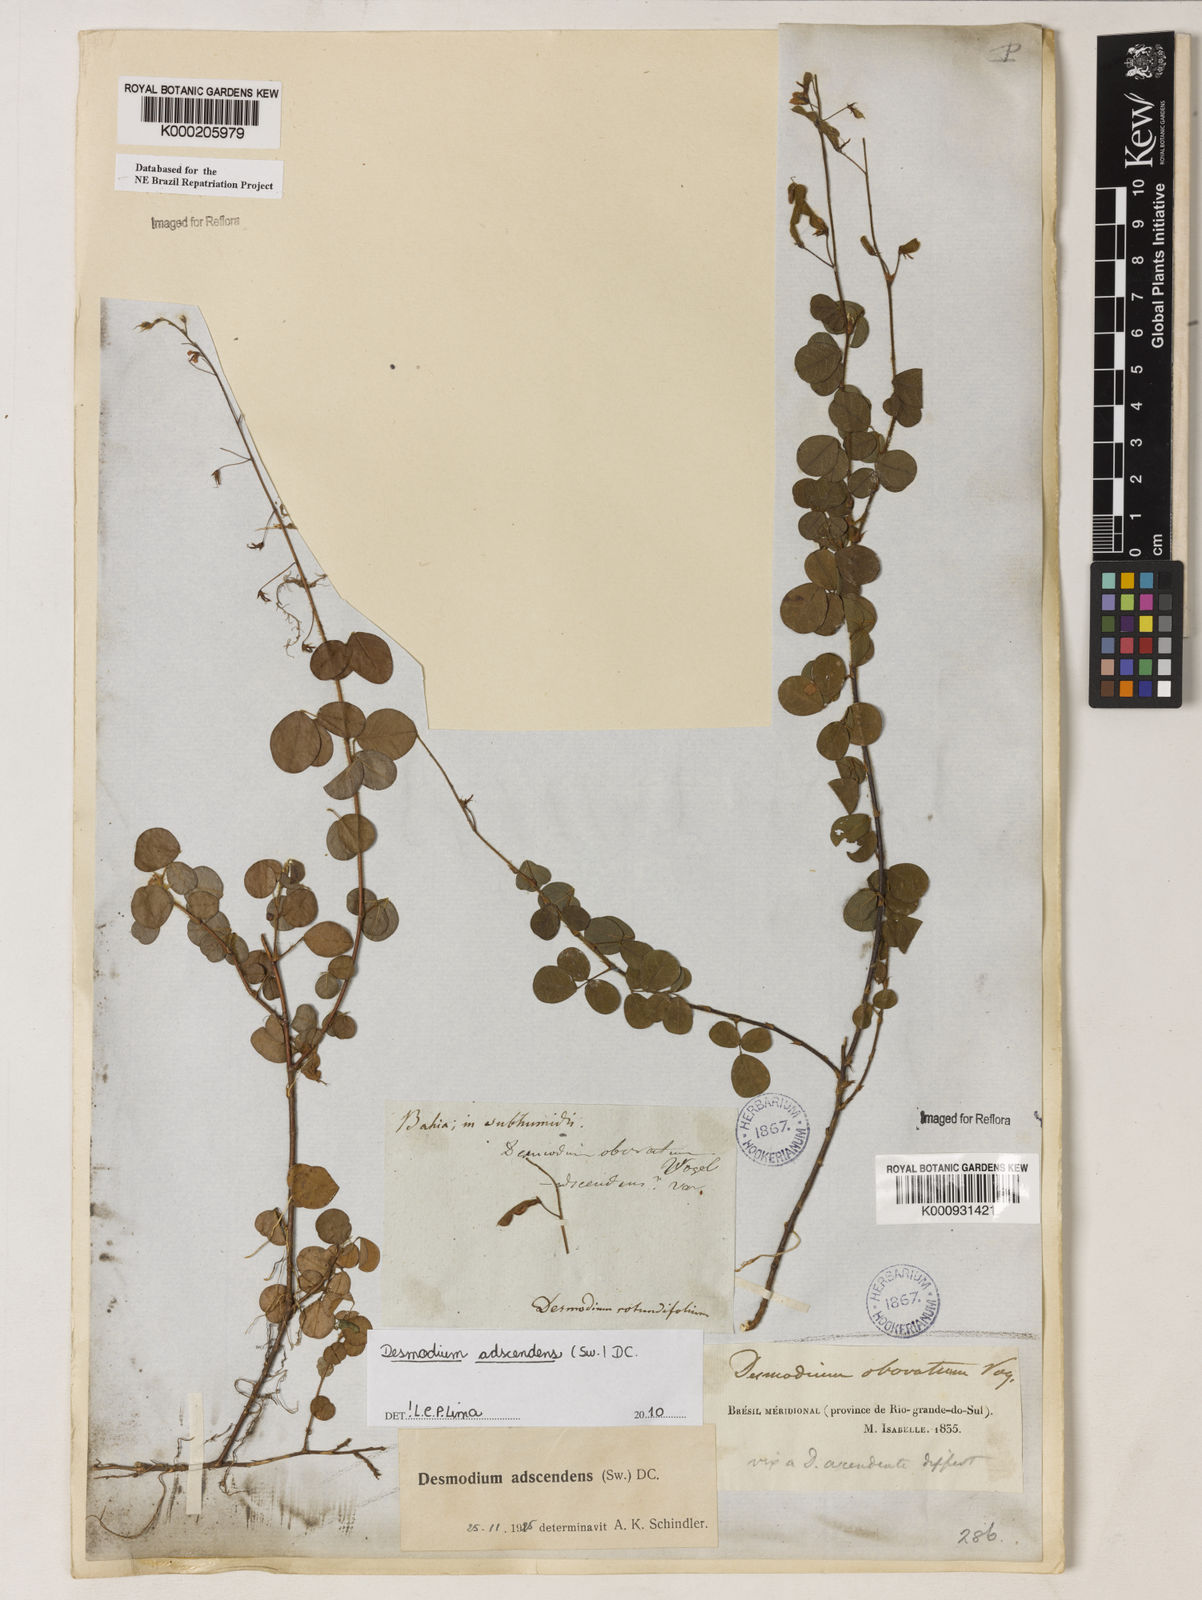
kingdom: Plantae
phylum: Tracheophyta
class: Magnoliopsida
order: Fabales
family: Fabaceae
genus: Grona
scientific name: Grona adscendens
